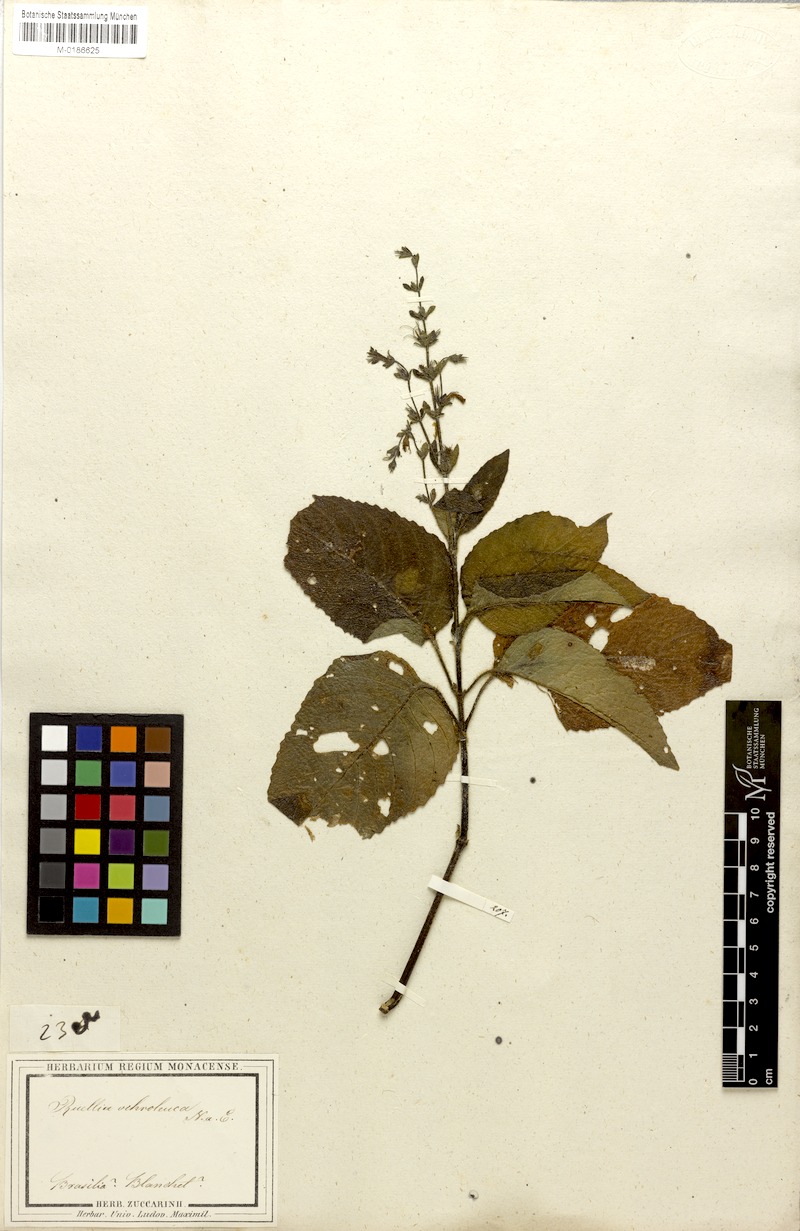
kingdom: Plantae
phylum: Tracheophyta
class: Magnoliopsida
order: Lamiales
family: Acanthaceae
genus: Ruellia
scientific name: Ruellia ochroleuca
